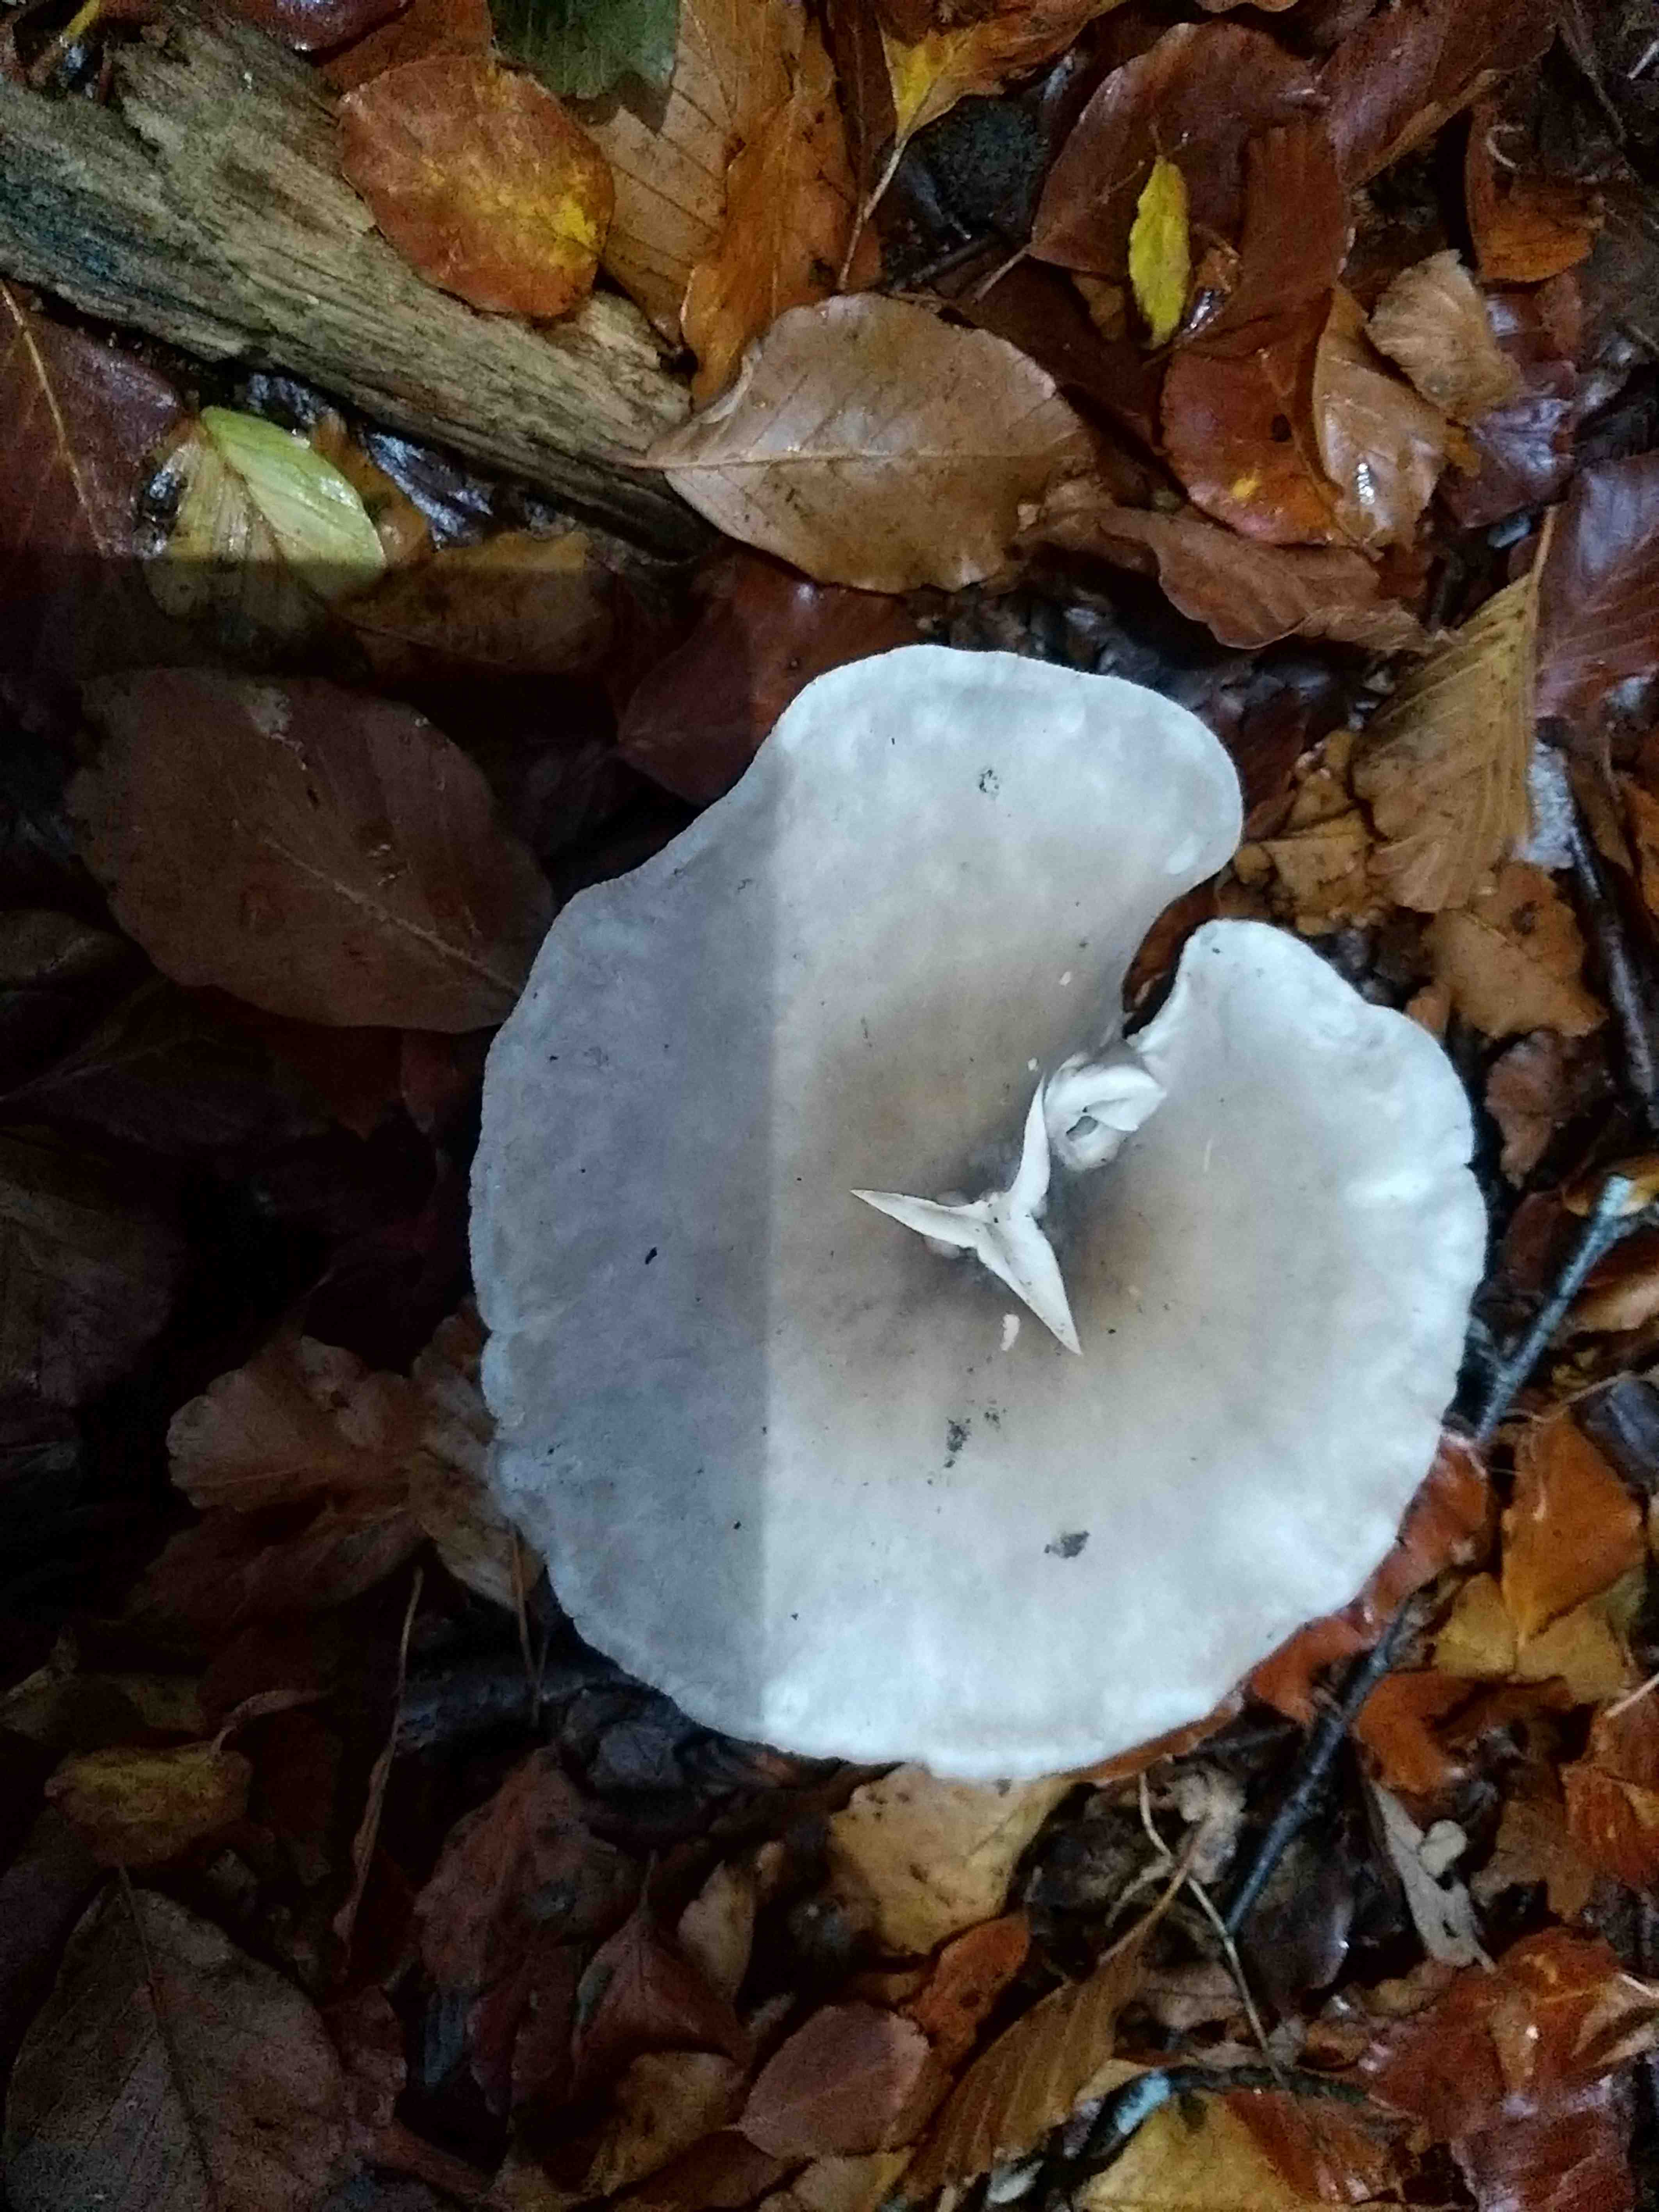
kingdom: Fungi
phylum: Basidiomycota
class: Agaricomycetes
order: Agaricales
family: Tricholomataceae
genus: Clitocybe
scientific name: Clitocybe nebularis
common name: tåge-tragthat
